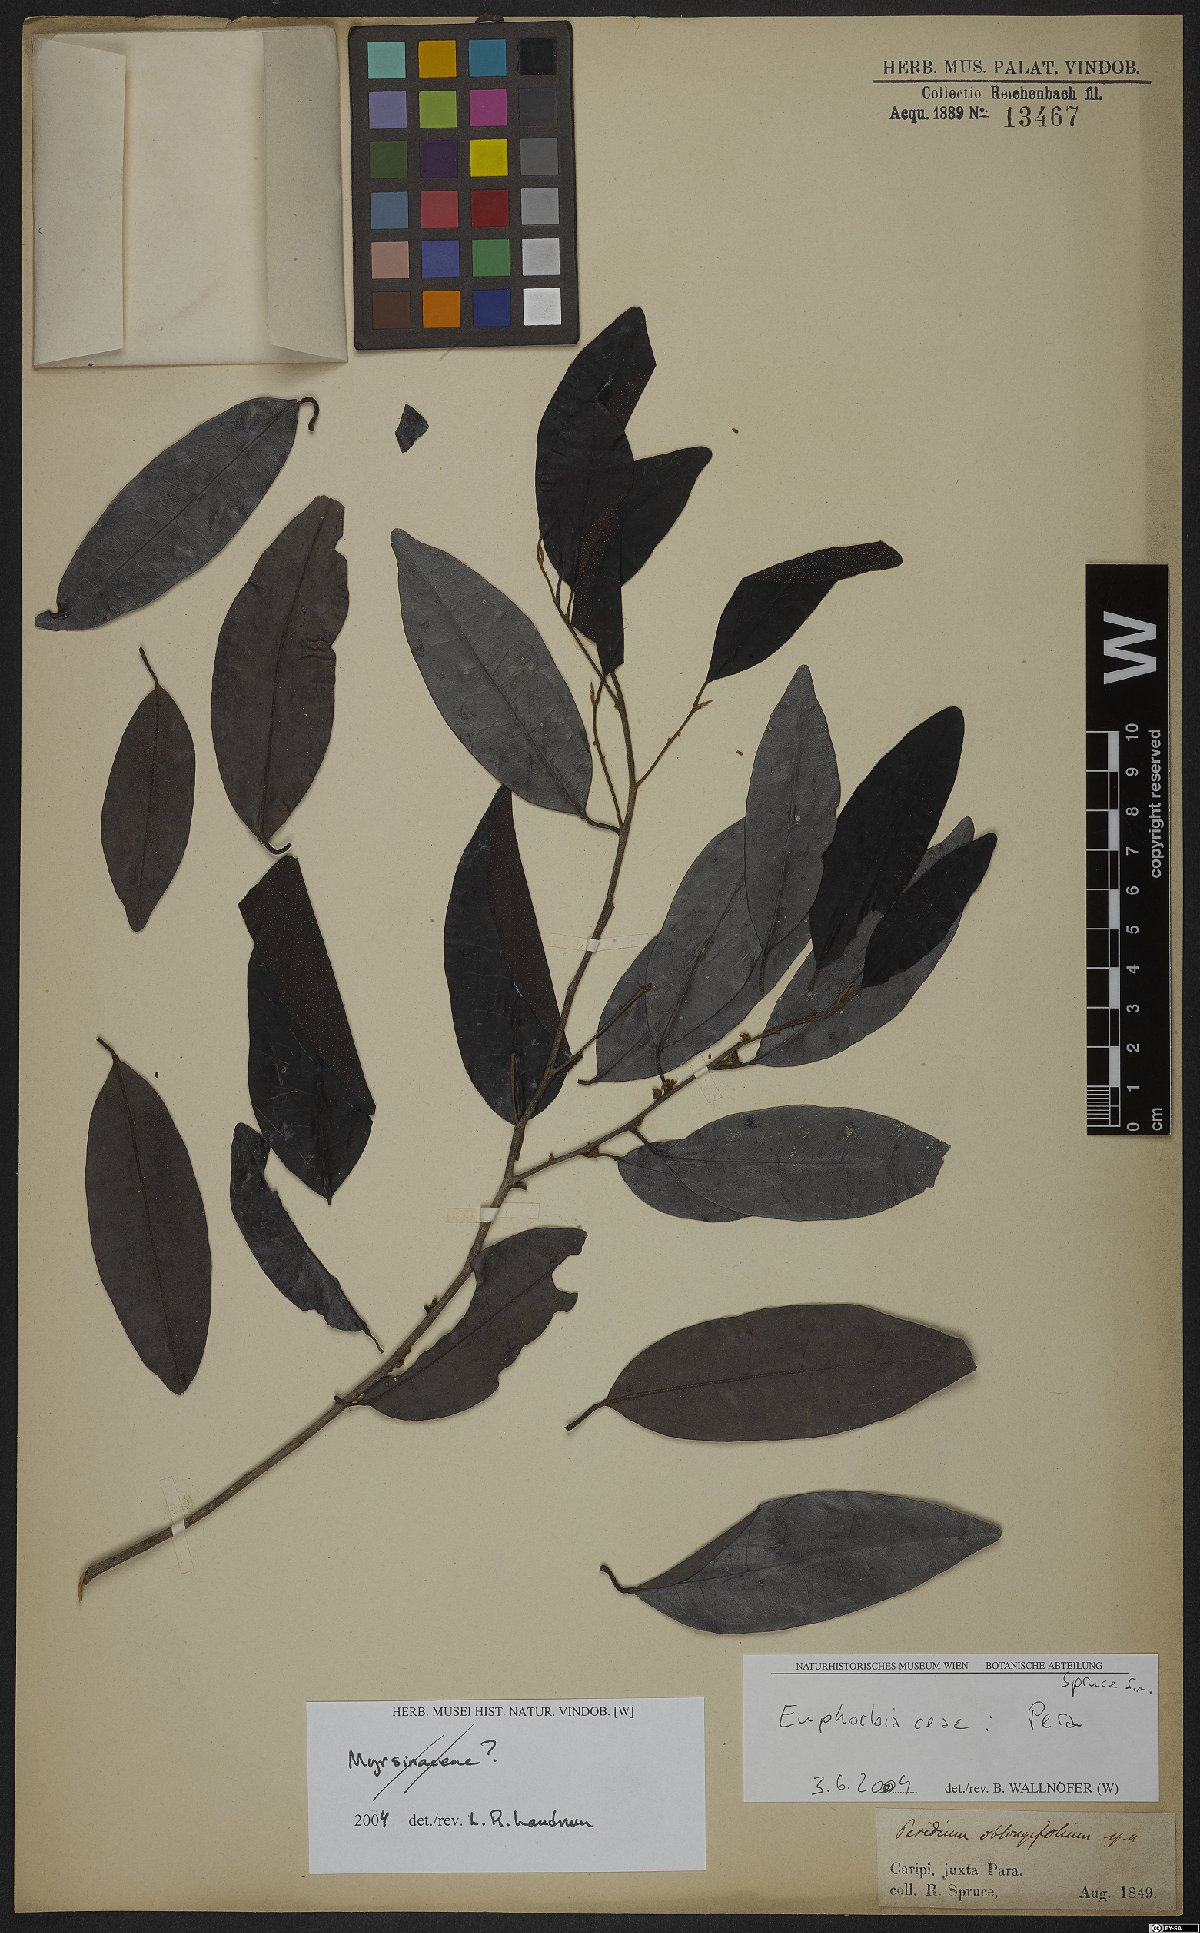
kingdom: Plantae
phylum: Tracheophyta
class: Magnoliopsida
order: Malpighiales
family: Peraceae
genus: Pera
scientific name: Pera
